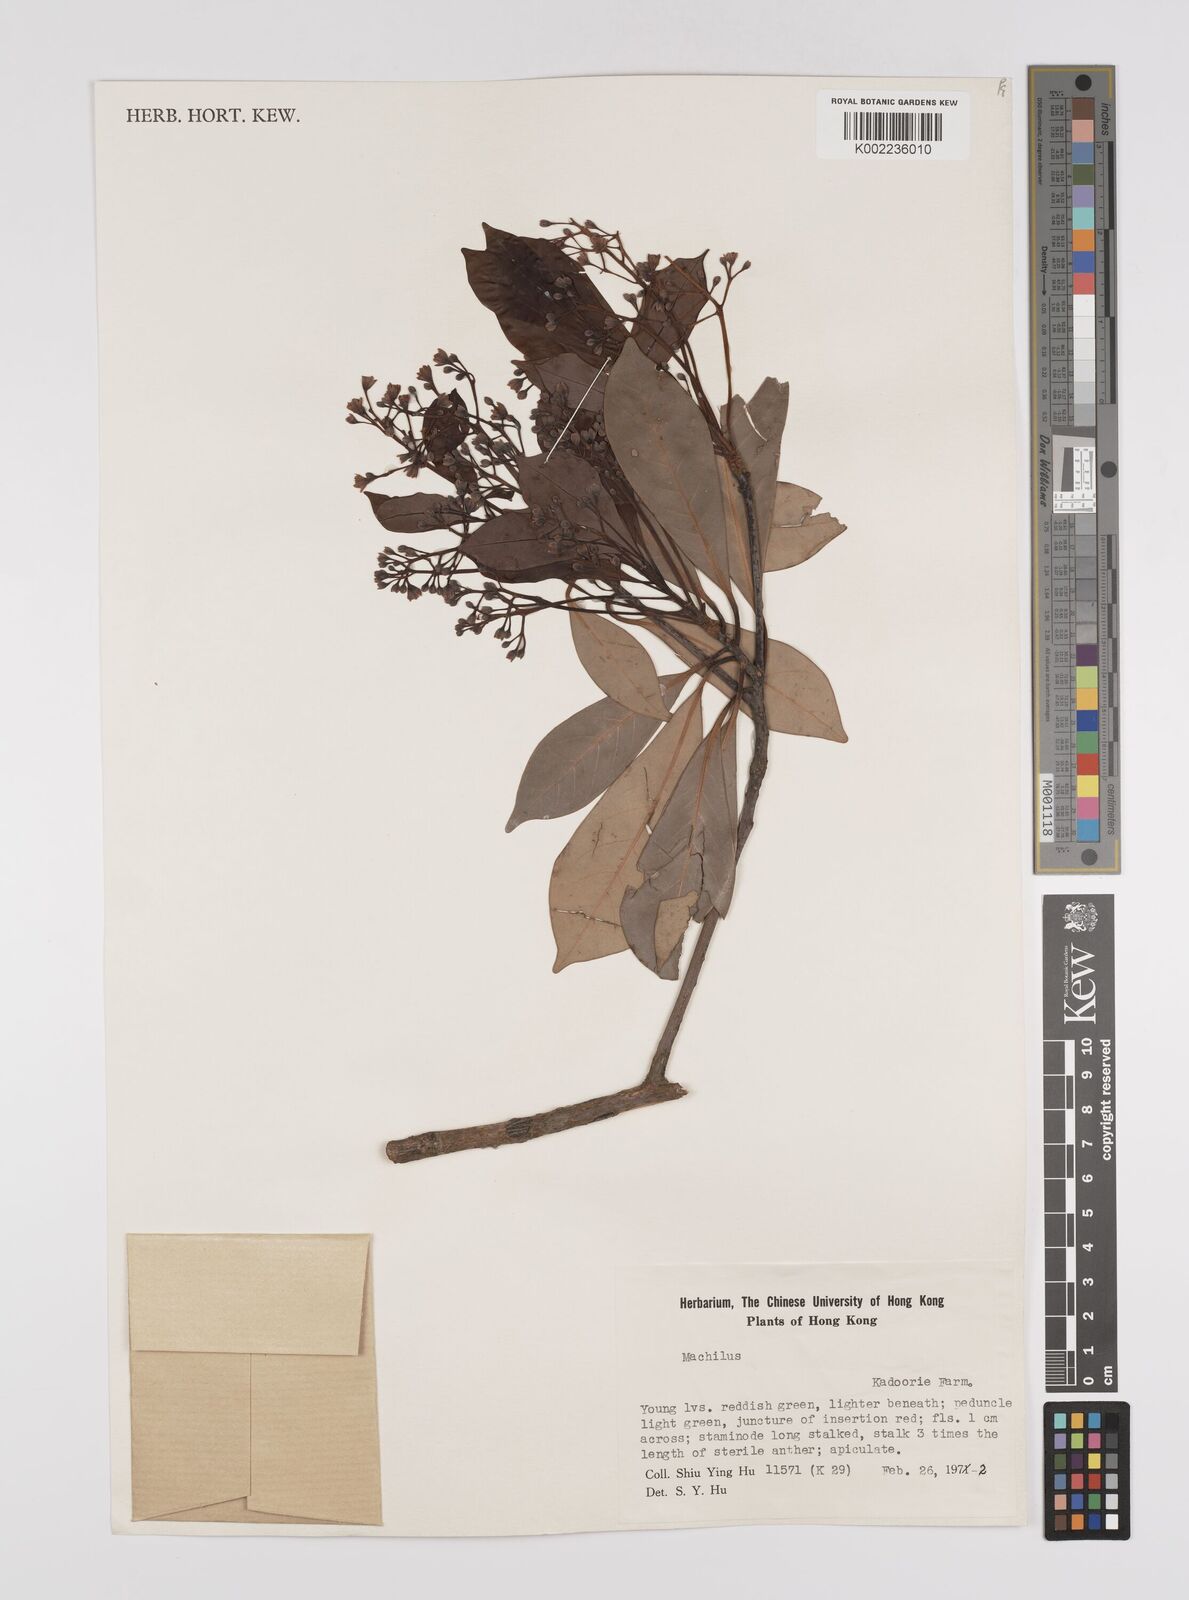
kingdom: Plantae
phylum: Tracheophyta
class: Magnoliopsida
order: Laurales
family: Lauraceae
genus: Persea
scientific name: Persea
